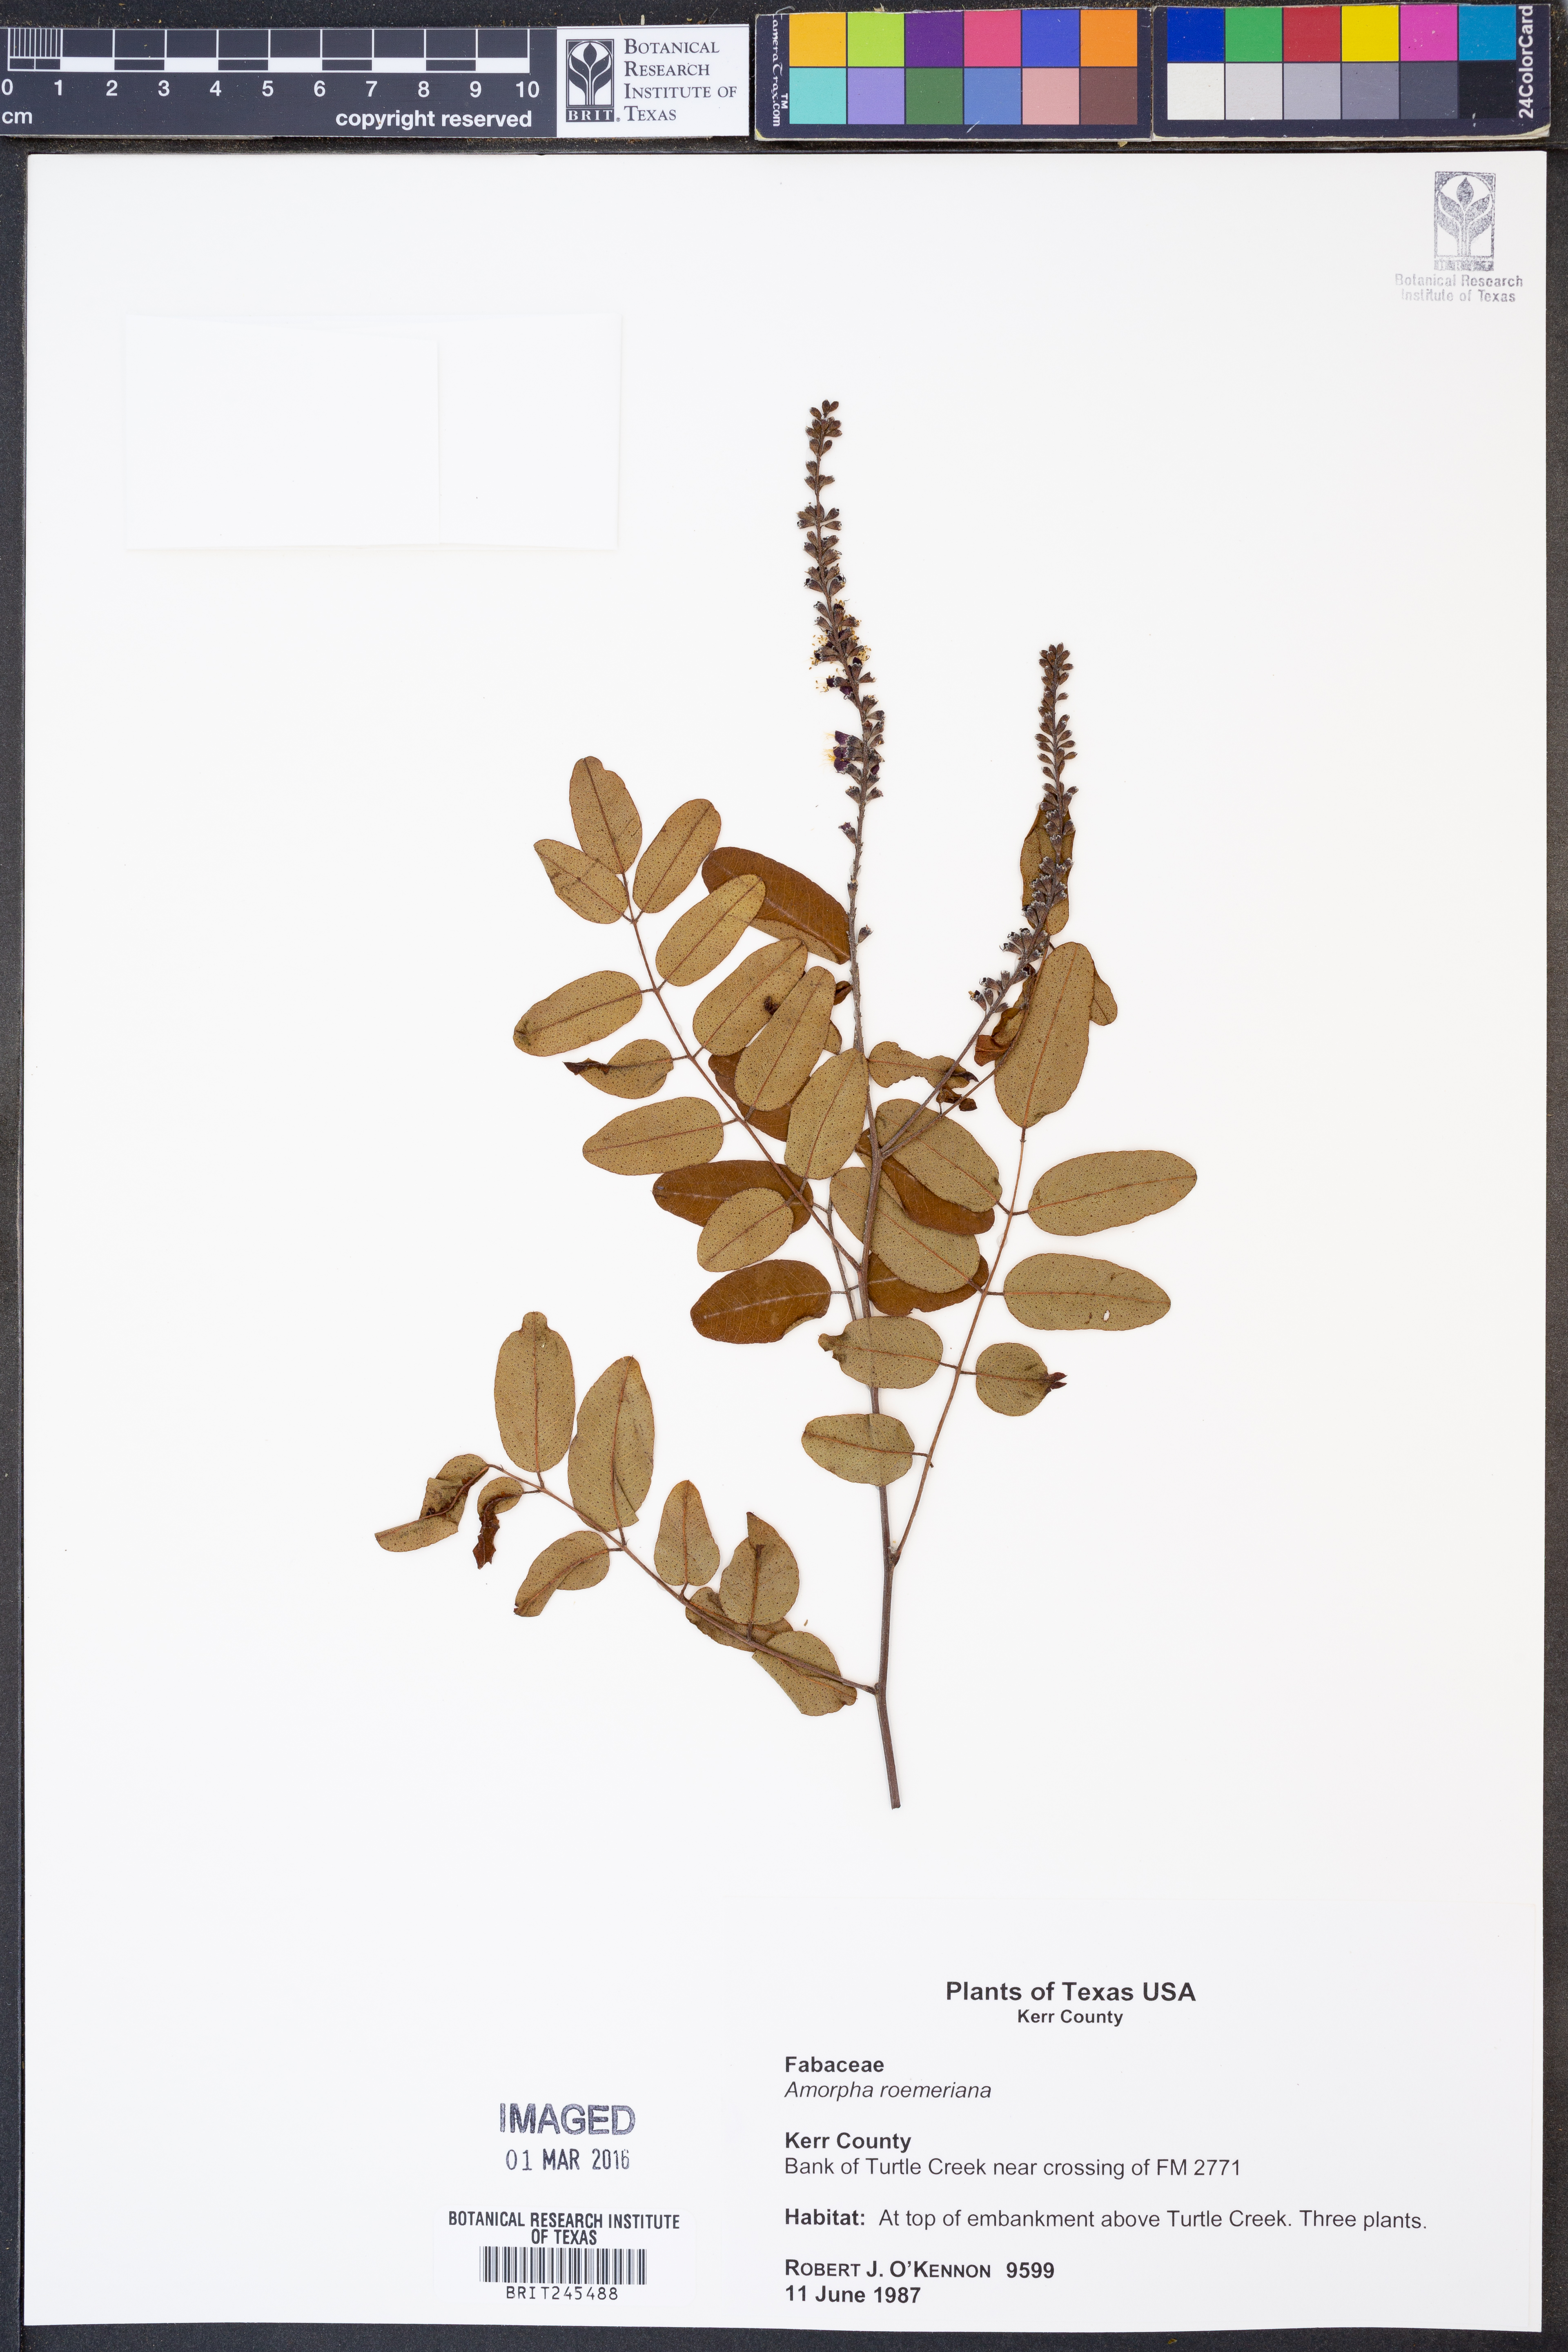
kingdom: Plantae
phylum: Tracheophyta
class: Magnoliopsida
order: Fabales
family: Fabaceae
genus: Amorpha
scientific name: Amorpha roemeriana
